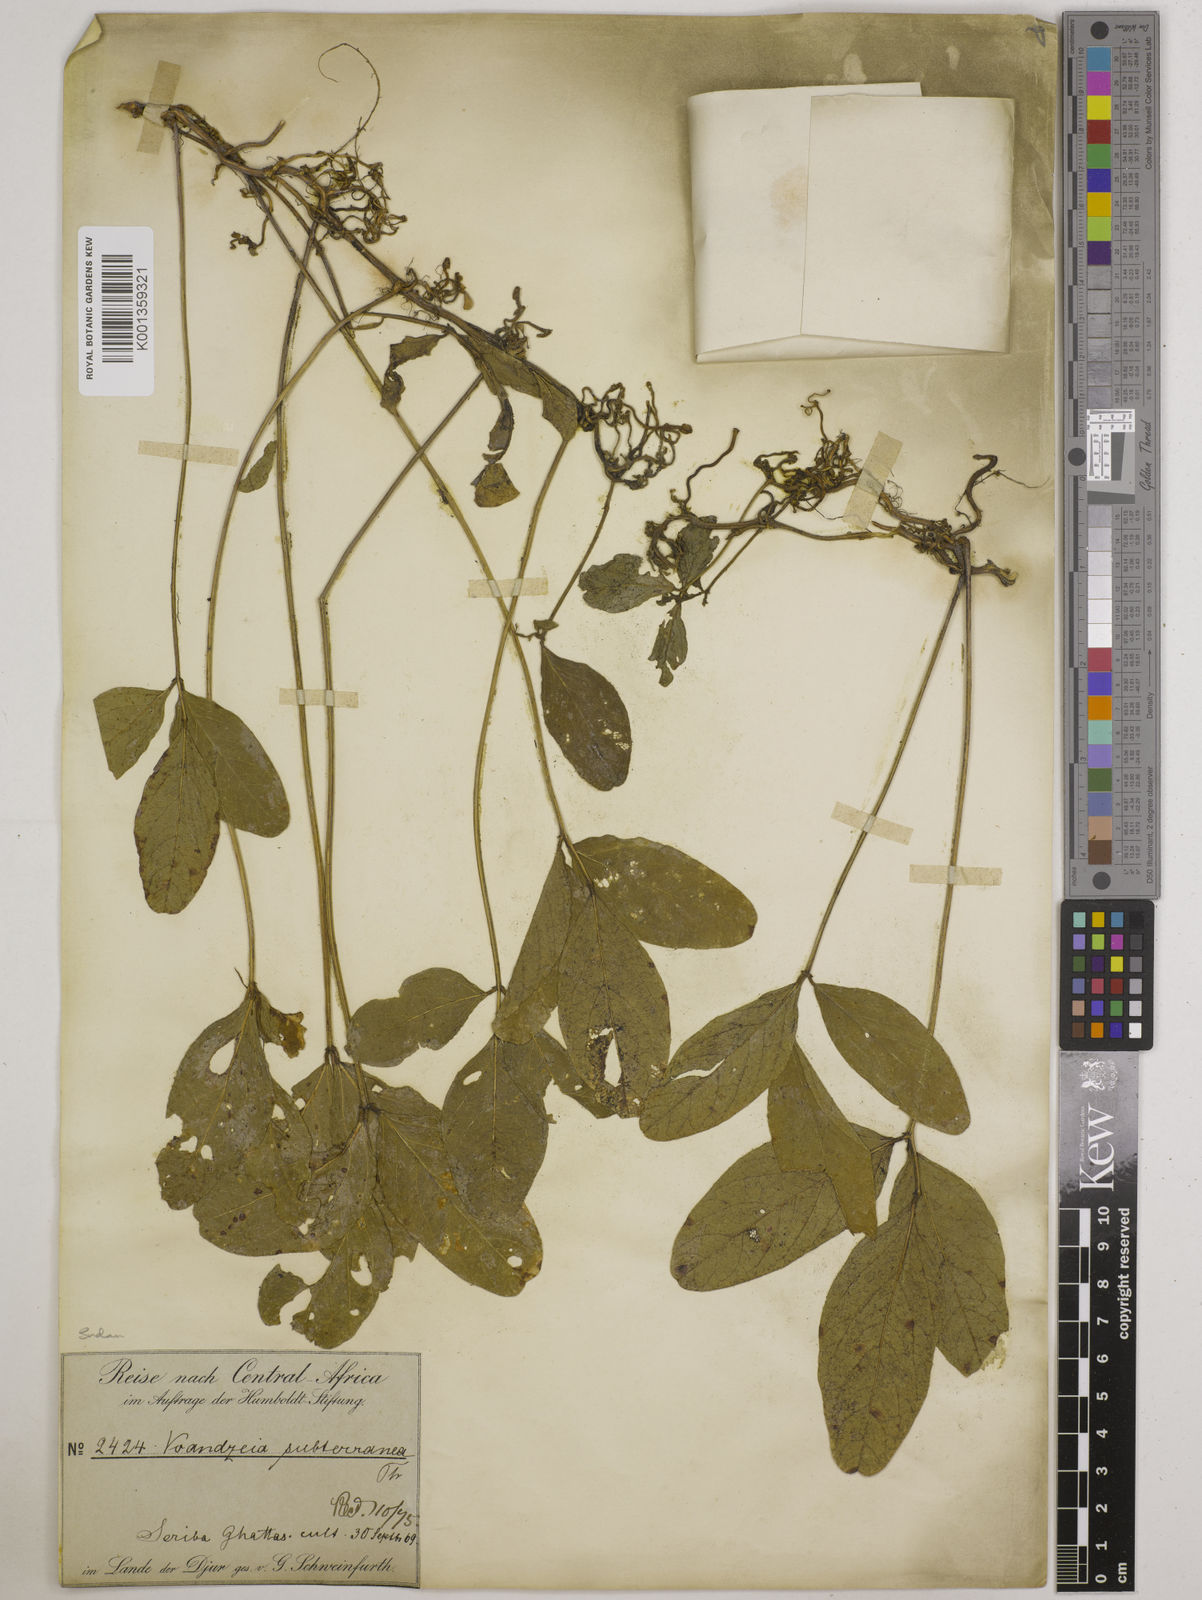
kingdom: Plantae
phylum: Tracheophyta
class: Magnoliopsida
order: Fabales
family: Fabaceae
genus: Vigna
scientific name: Vigna subterranea
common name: Bambara groundnut
